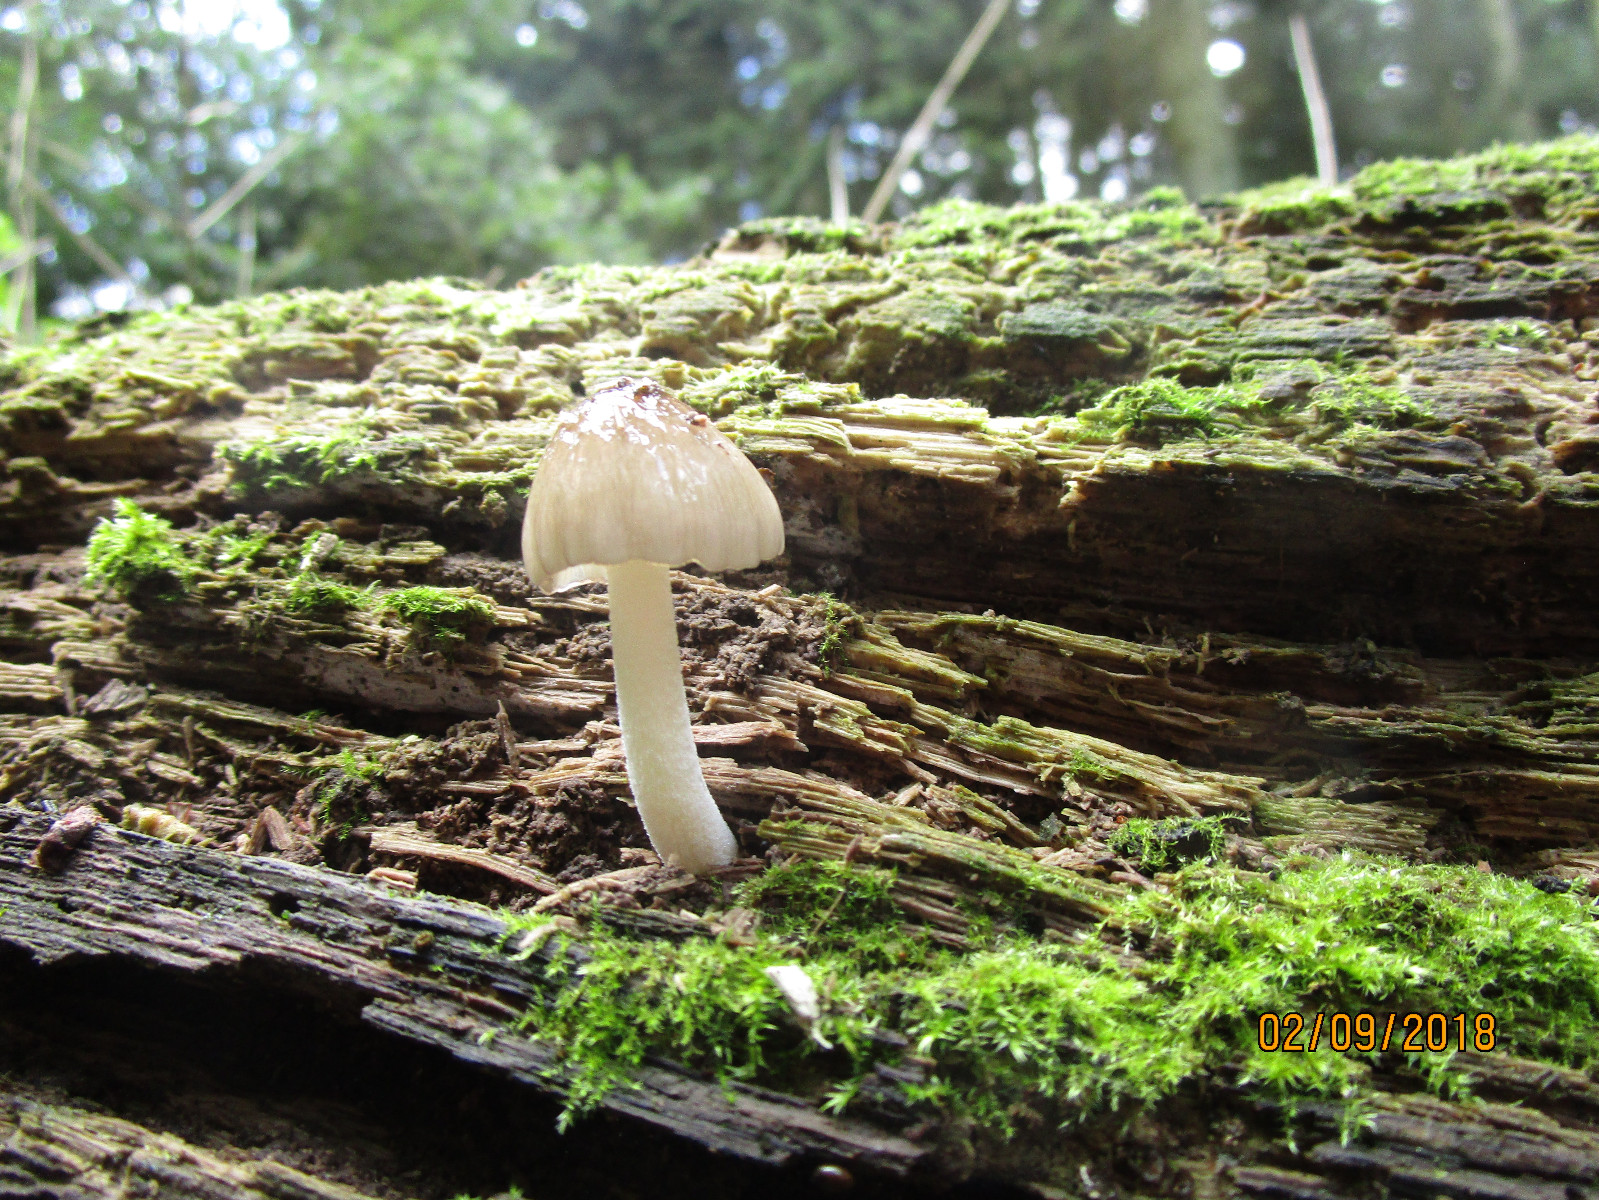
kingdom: Fungi
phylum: Basidiomycota
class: Agaricomycetes
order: Agaricales
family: Bolbitiaceae
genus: Bolbitius
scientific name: Bolbitius reticulatus
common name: netåret gulhat
